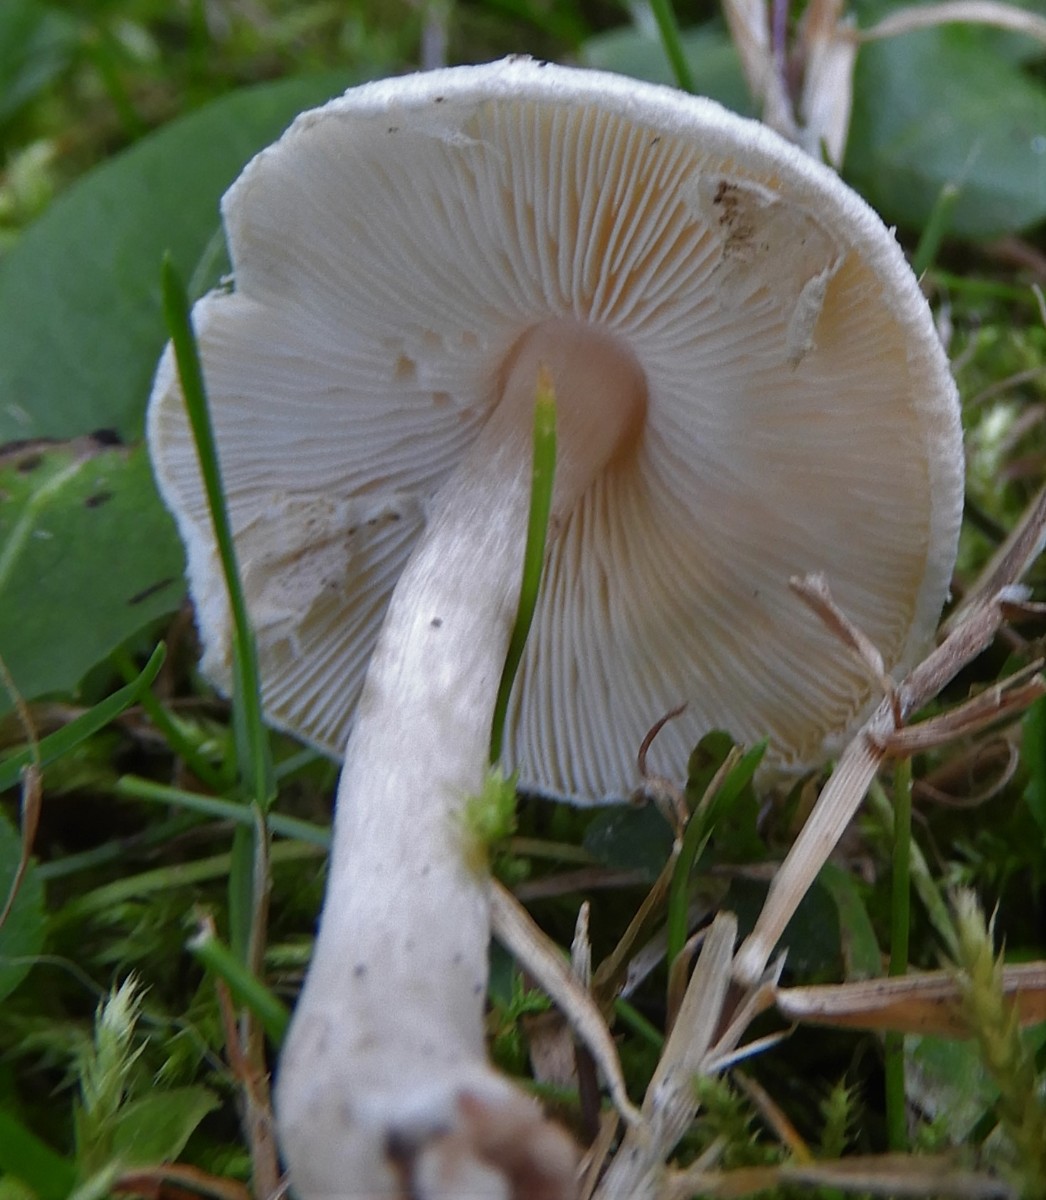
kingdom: Fungi
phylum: Basidiomycota
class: Agaricomycetes
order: Agaricales
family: Agaricaceae
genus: Lepiota
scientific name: Lepiota cristata
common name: stinkende parasolhat
